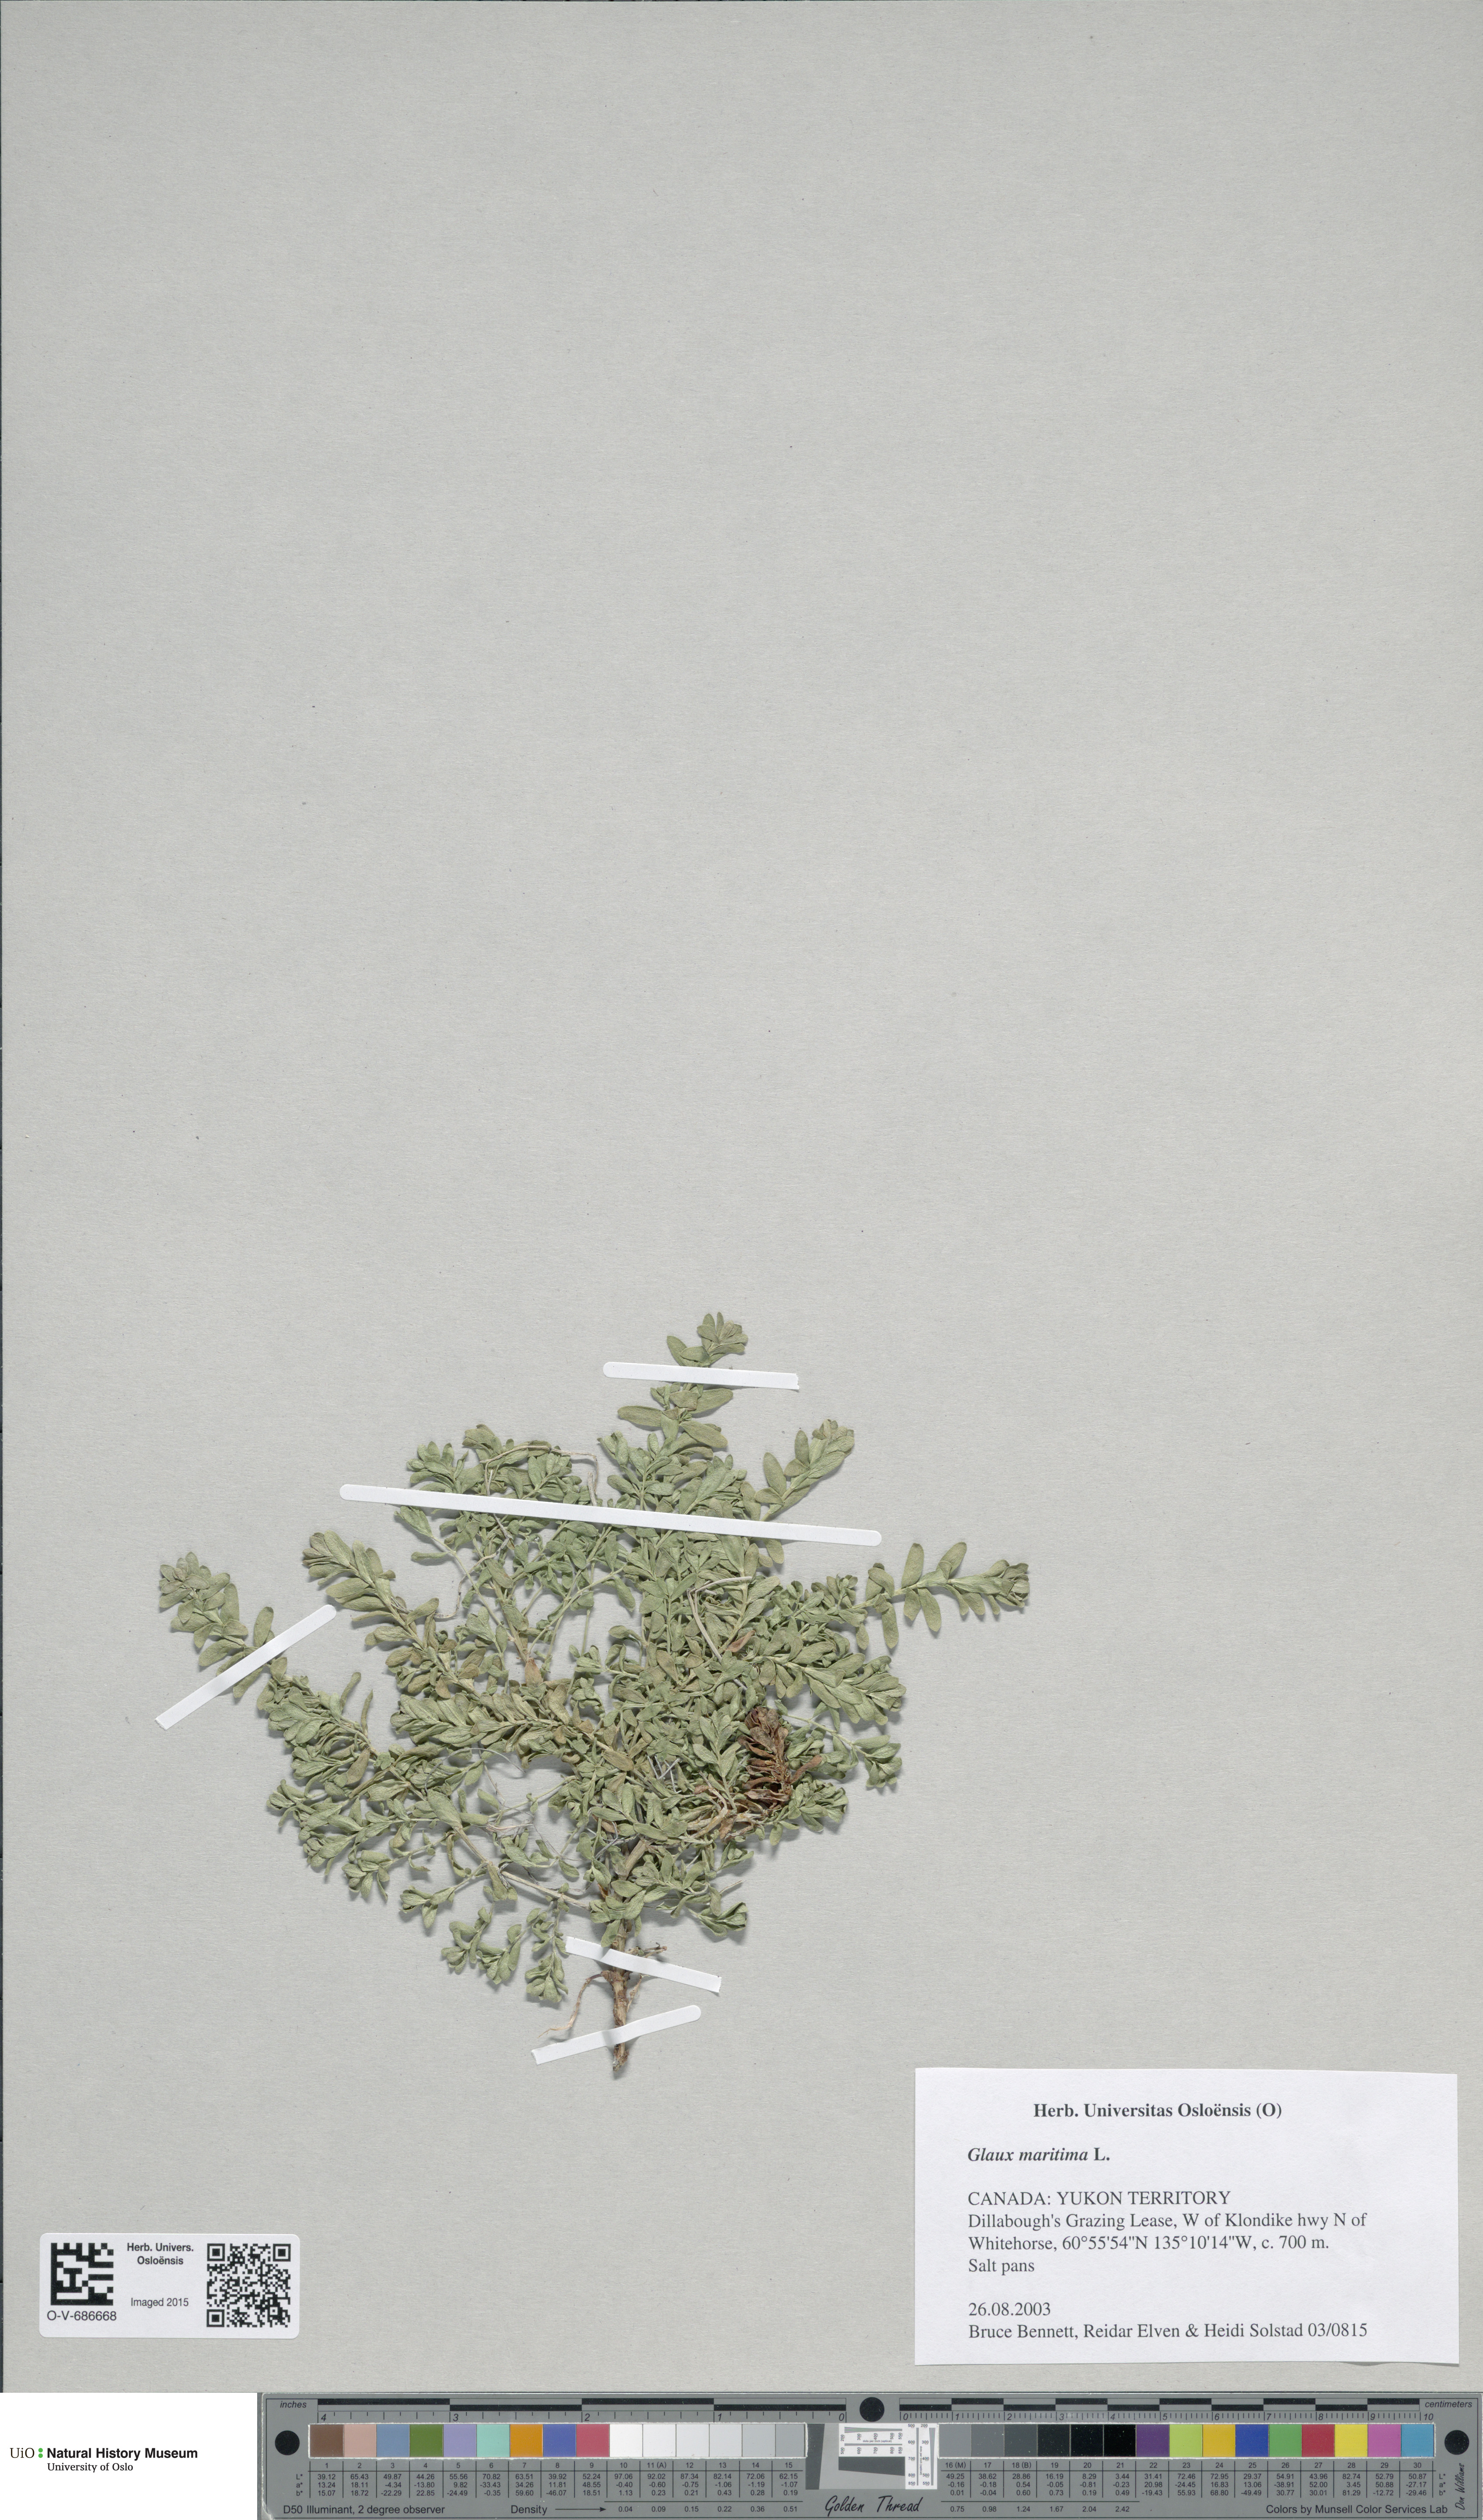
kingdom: Plantae
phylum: Tracheophyta
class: Magnoliopsida
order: Ericales
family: Primulaceae
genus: Lysimachia
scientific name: Lysimachia maritima
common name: Sea milkwort
